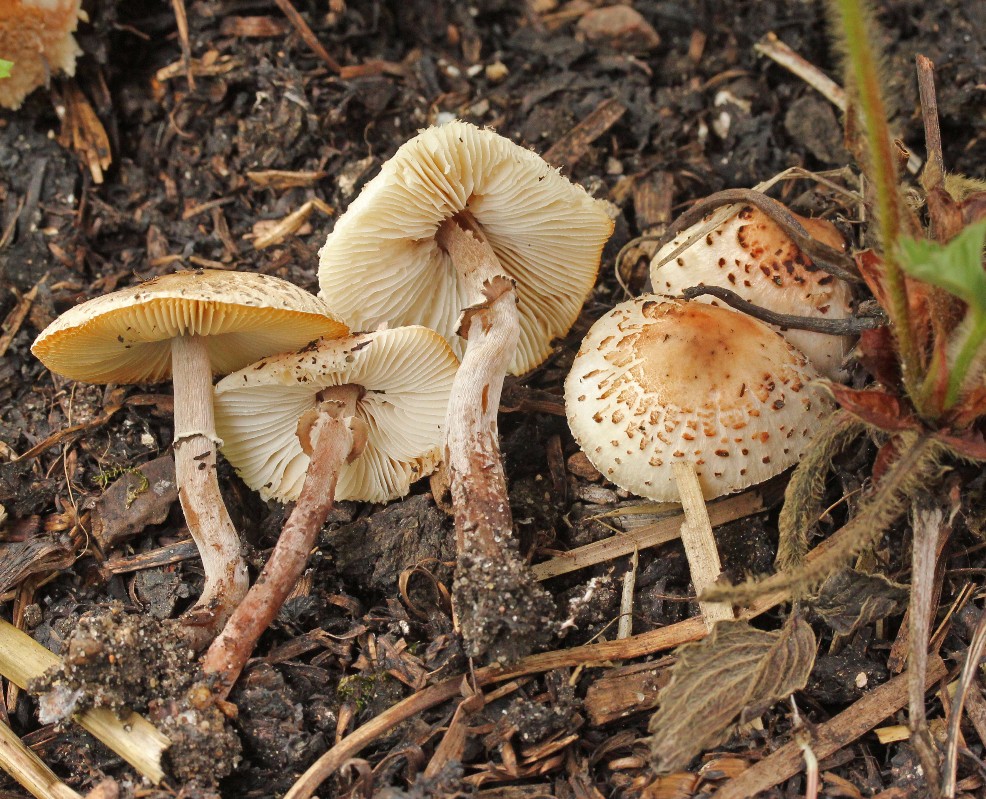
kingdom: Fungi
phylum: Basidiomycota
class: Agaricomycetes
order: Agaricales
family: Agaricaceae
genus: Lepiota
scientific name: Lepiota lilacea
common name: lillabrun parasolhat
